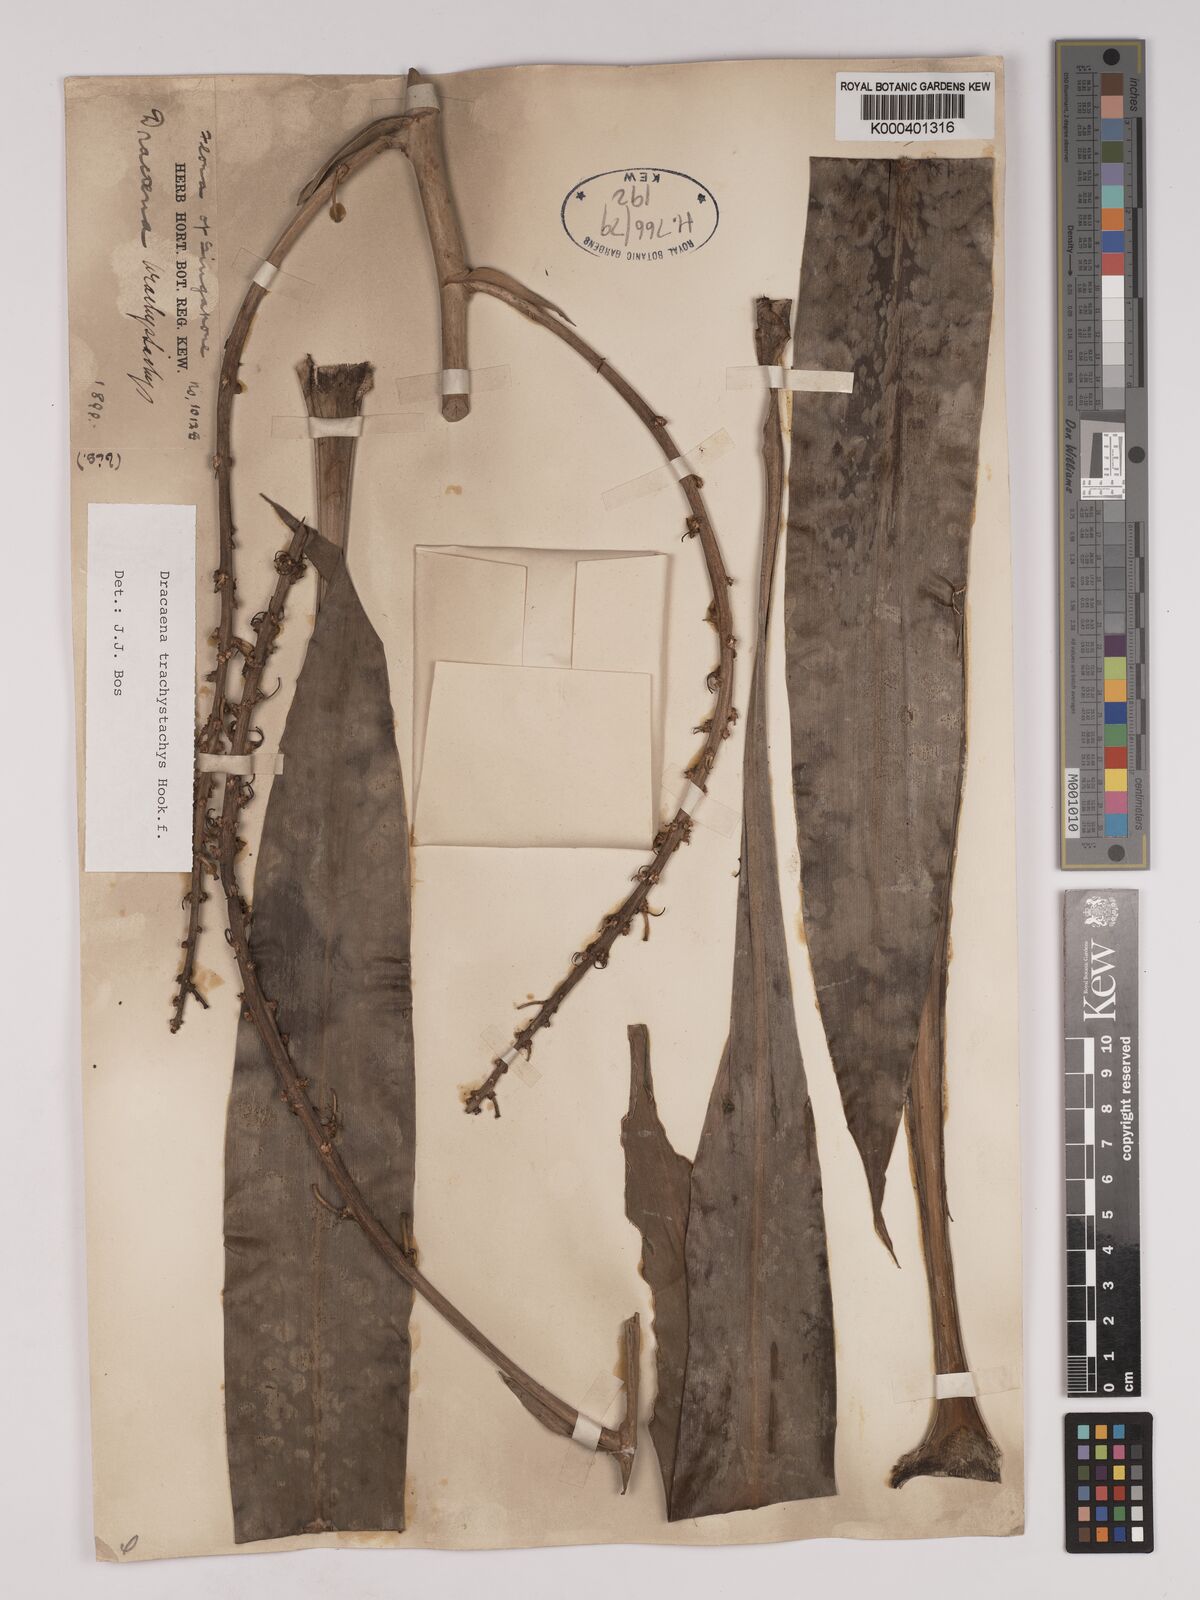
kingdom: Plantae
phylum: Tracheophyta
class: Liliopsida
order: Asparagales
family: Asparagaceae
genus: Dracaena
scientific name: Dracaena brachystachys
